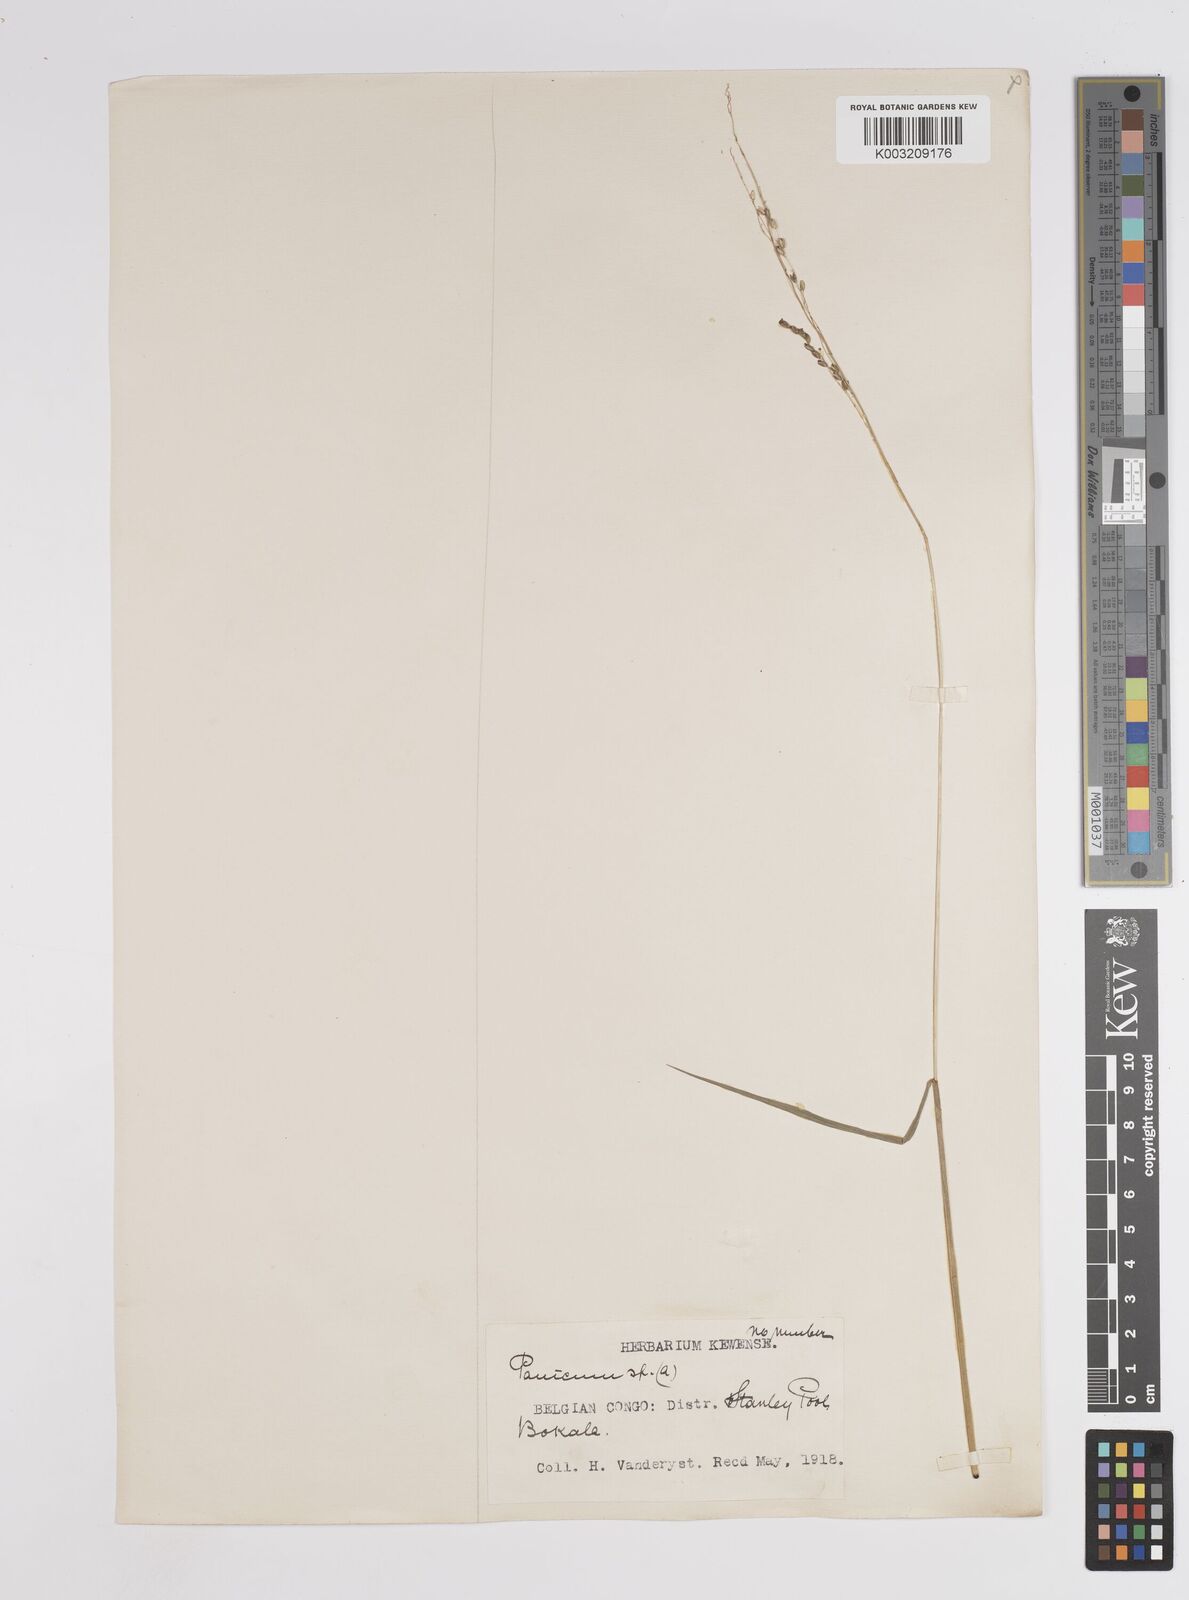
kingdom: Plantae
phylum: Tracheophyta
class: Liliopsida
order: Poales
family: Poaceae
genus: Panicum
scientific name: Panicum
